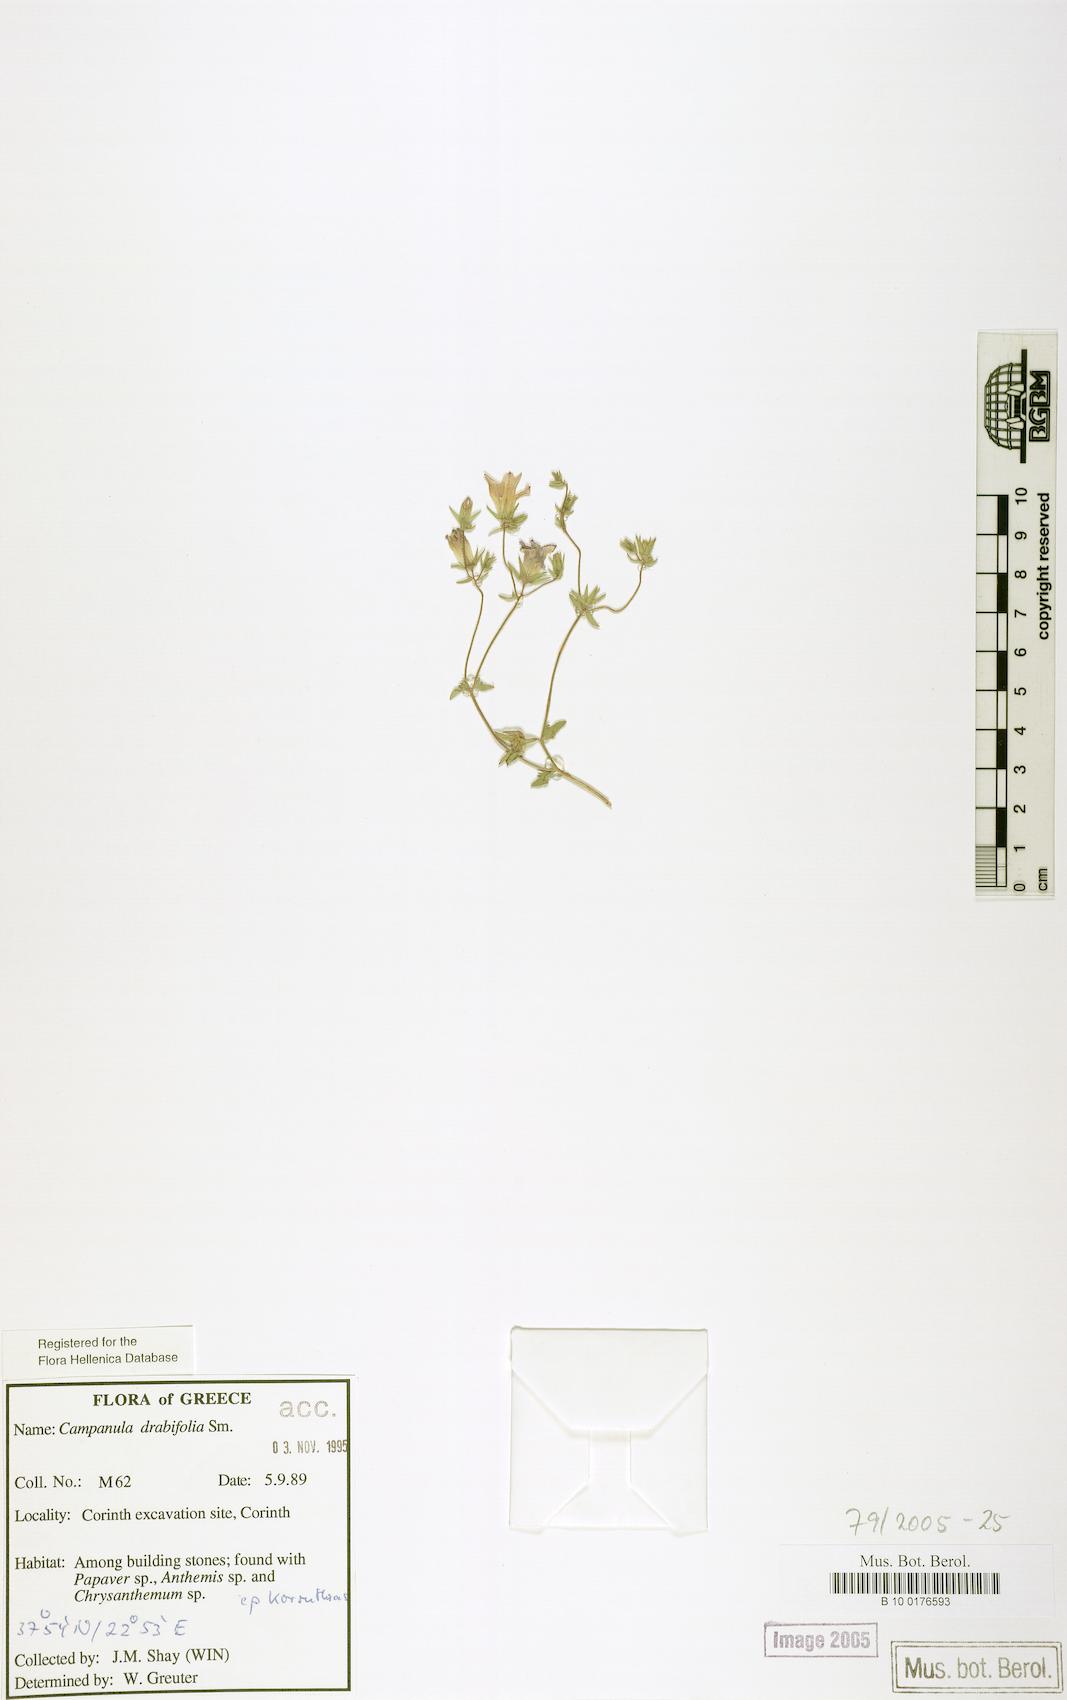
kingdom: Plantae
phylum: Tracheophyta
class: Magnoliopsida
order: Asterales
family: Campanulaceae
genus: Campanula
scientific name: Campanula drabifolia
